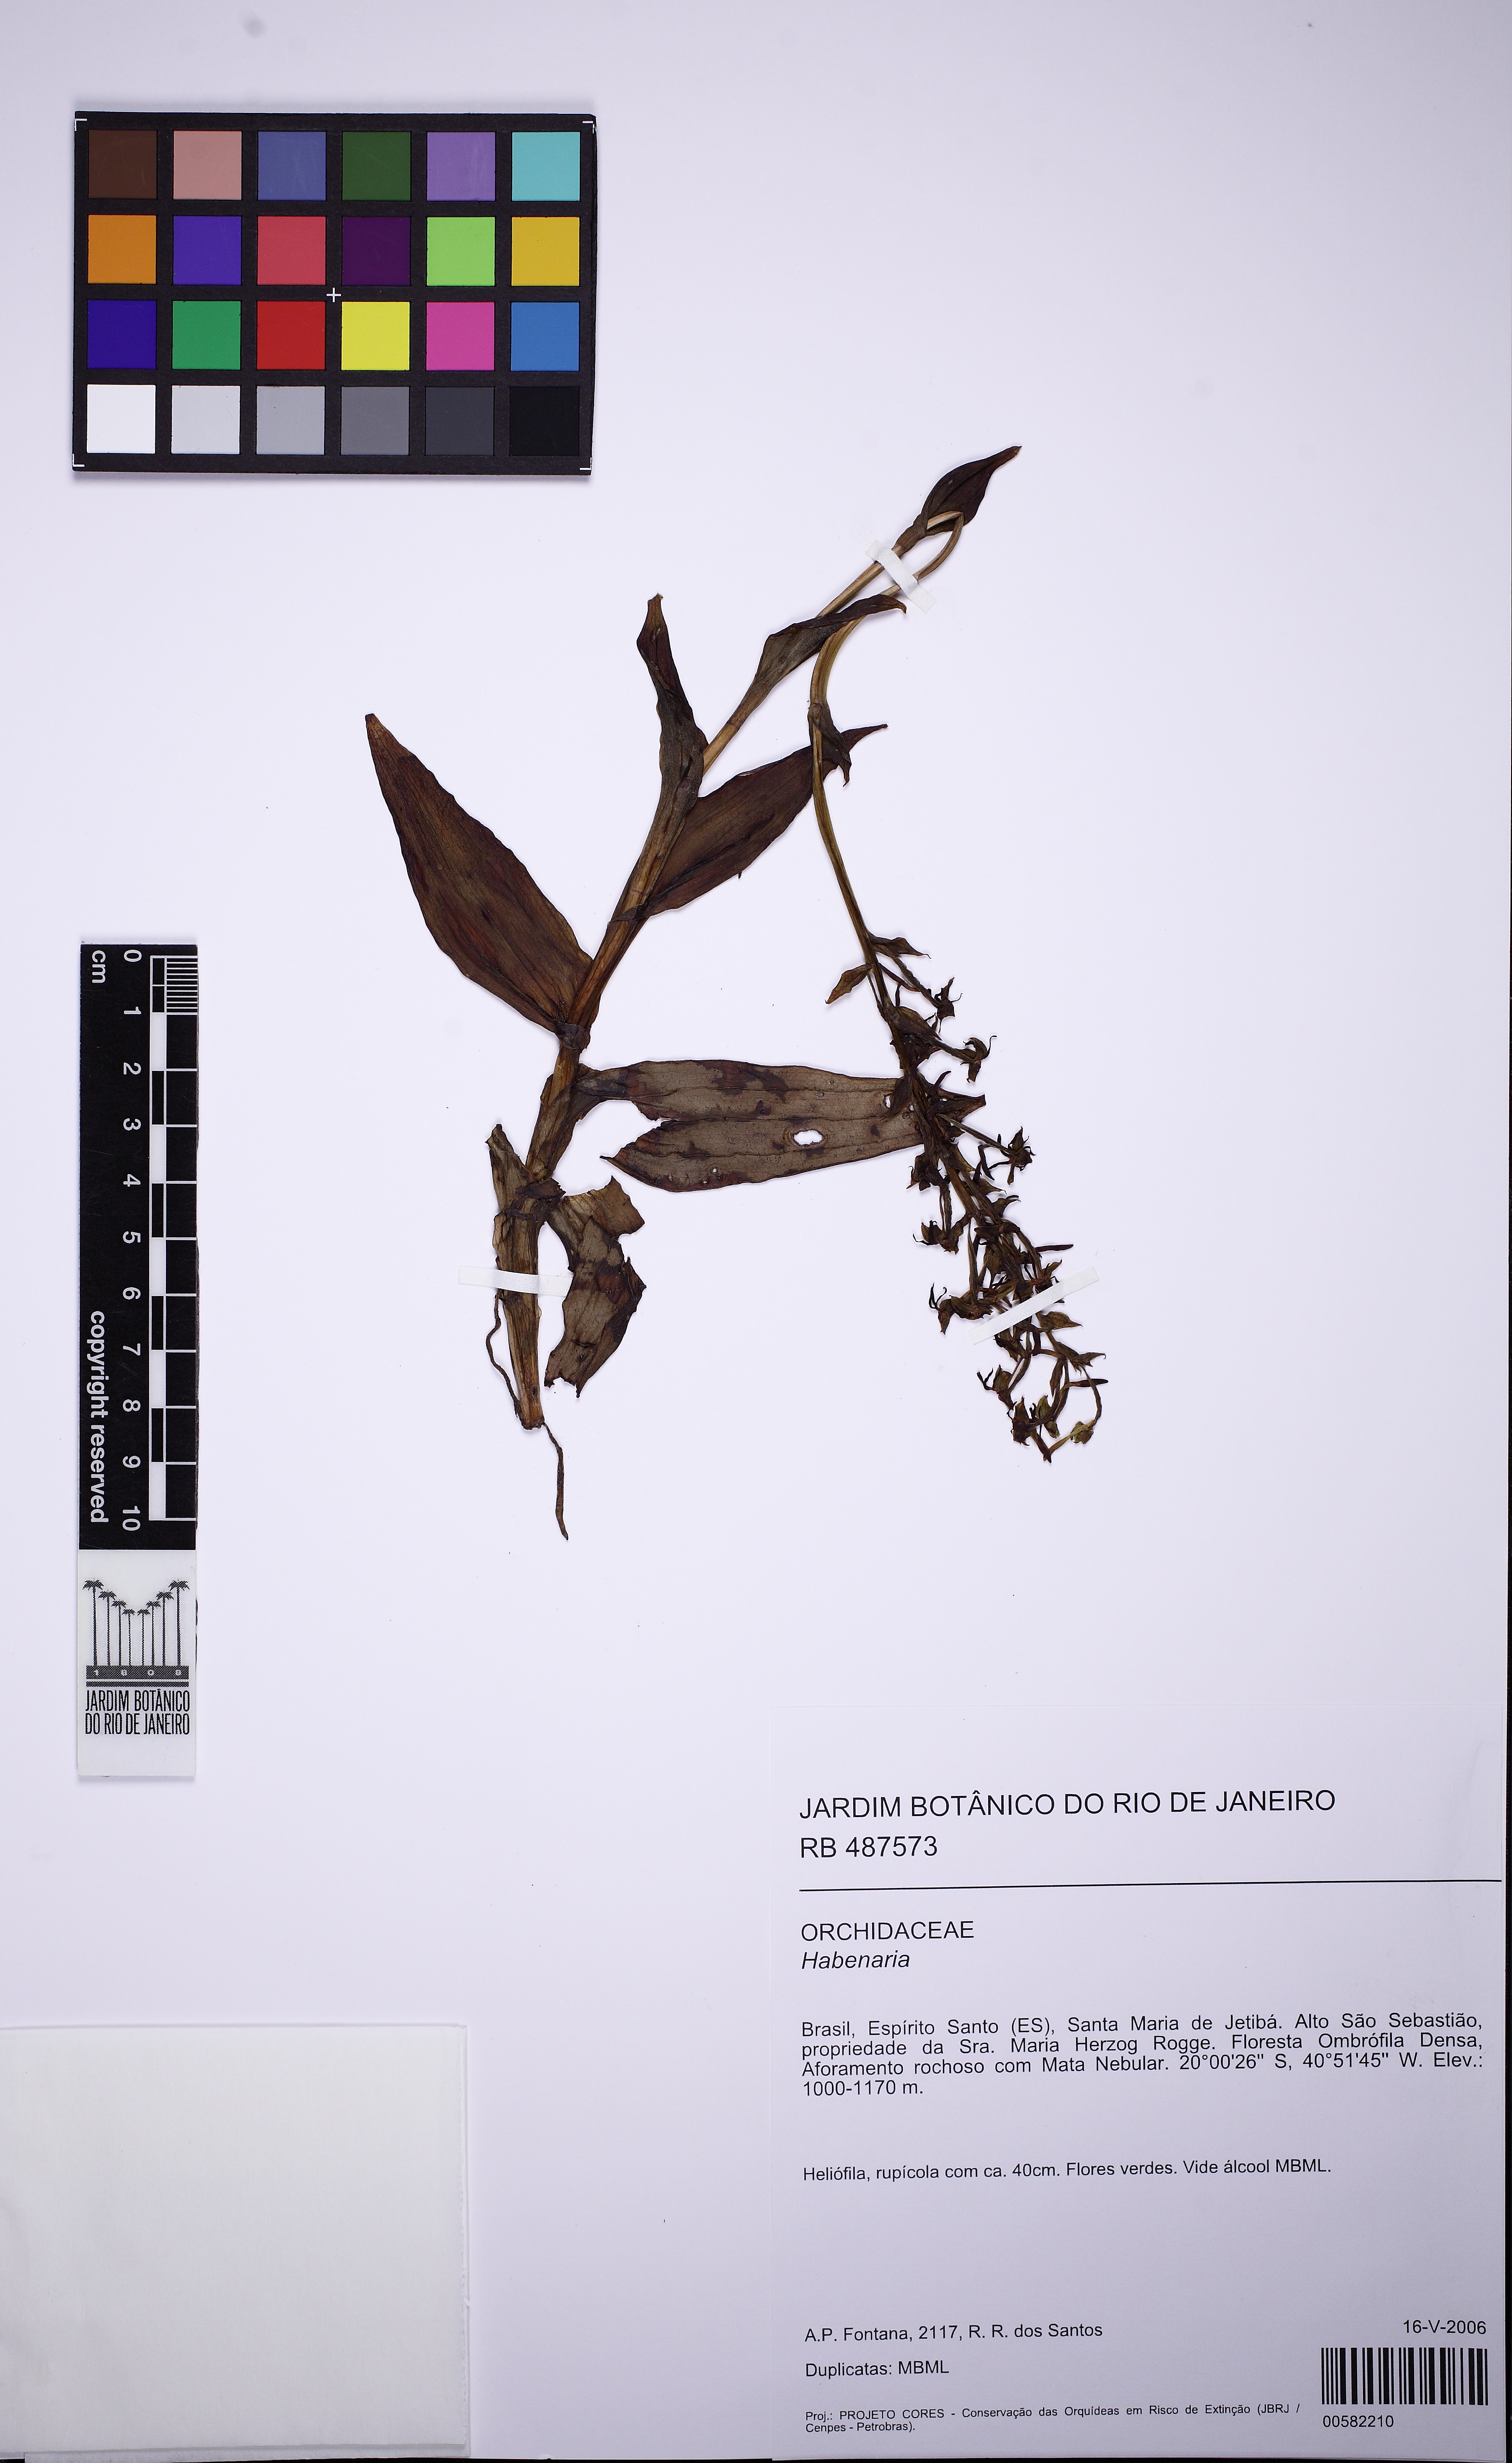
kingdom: Plantae
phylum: Tracheophyta
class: Liliopsida
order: Asparagales
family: Orchidaceae
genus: Habenaria
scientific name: Habenaria araneiflora
